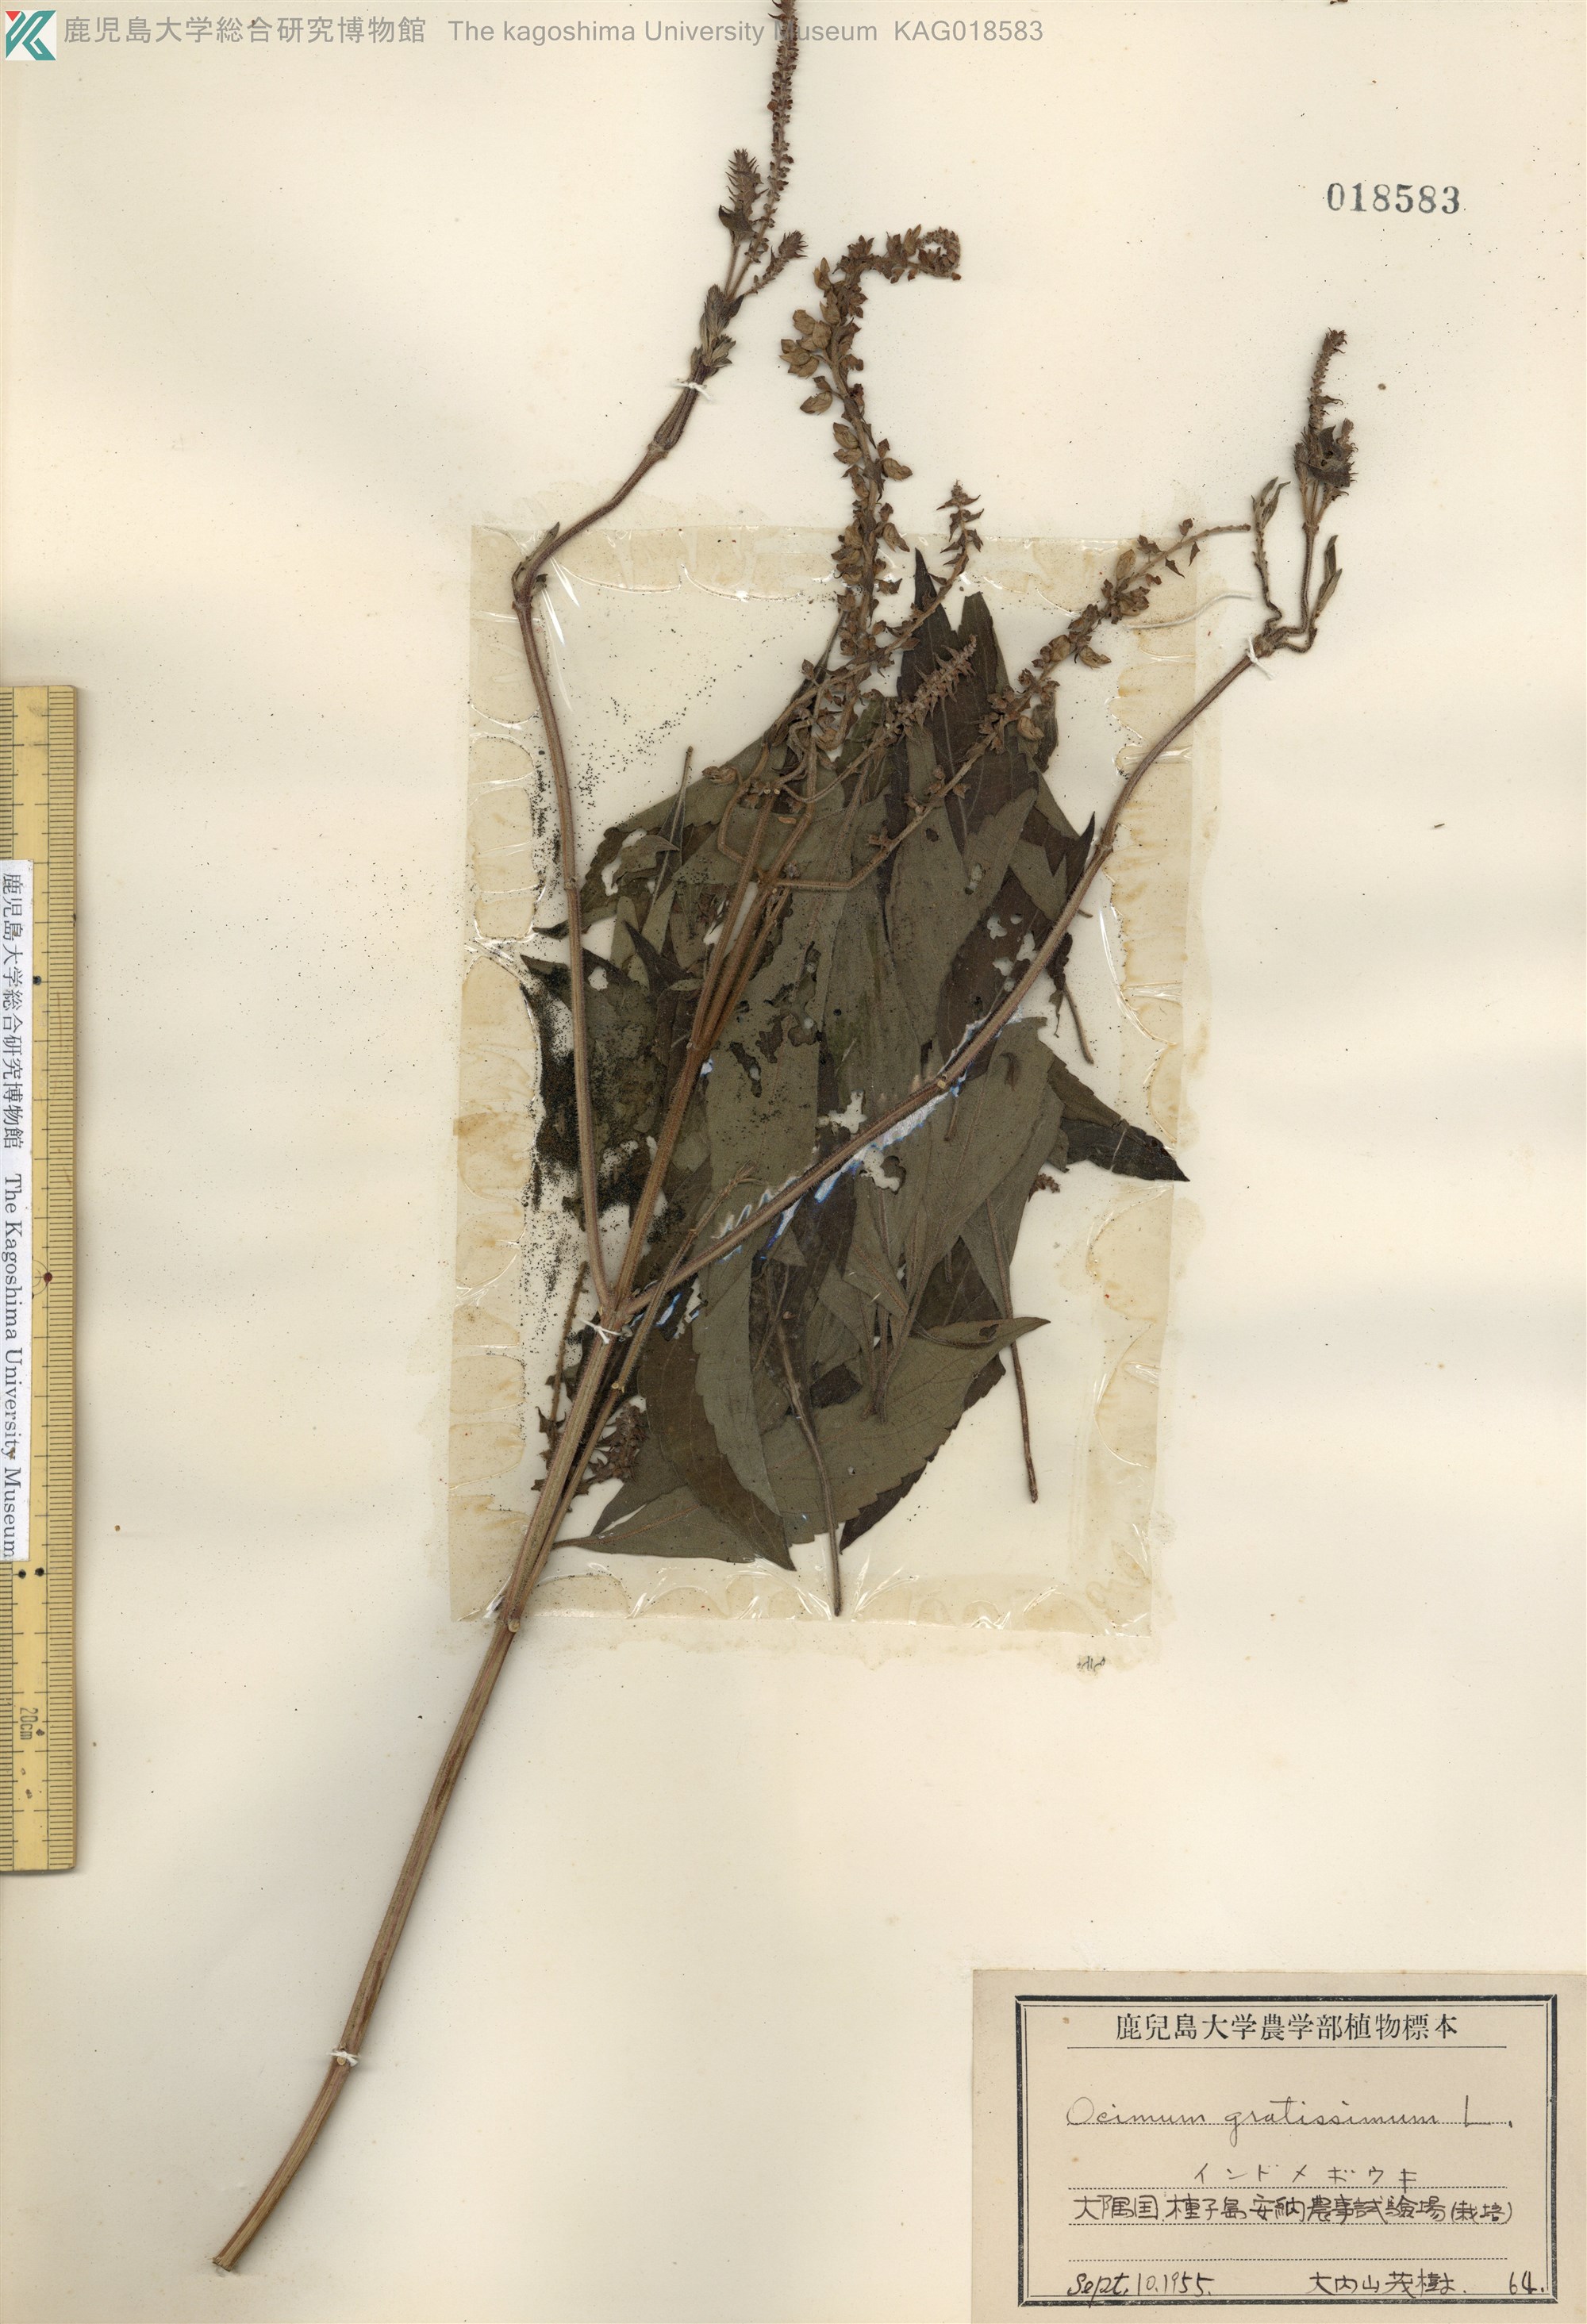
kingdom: Plantae
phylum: Tracheophyta
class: Magnoliopsida
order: Lamiales
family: Lamiaceae
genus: Ocimum
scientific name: Ocimum gratissimum
